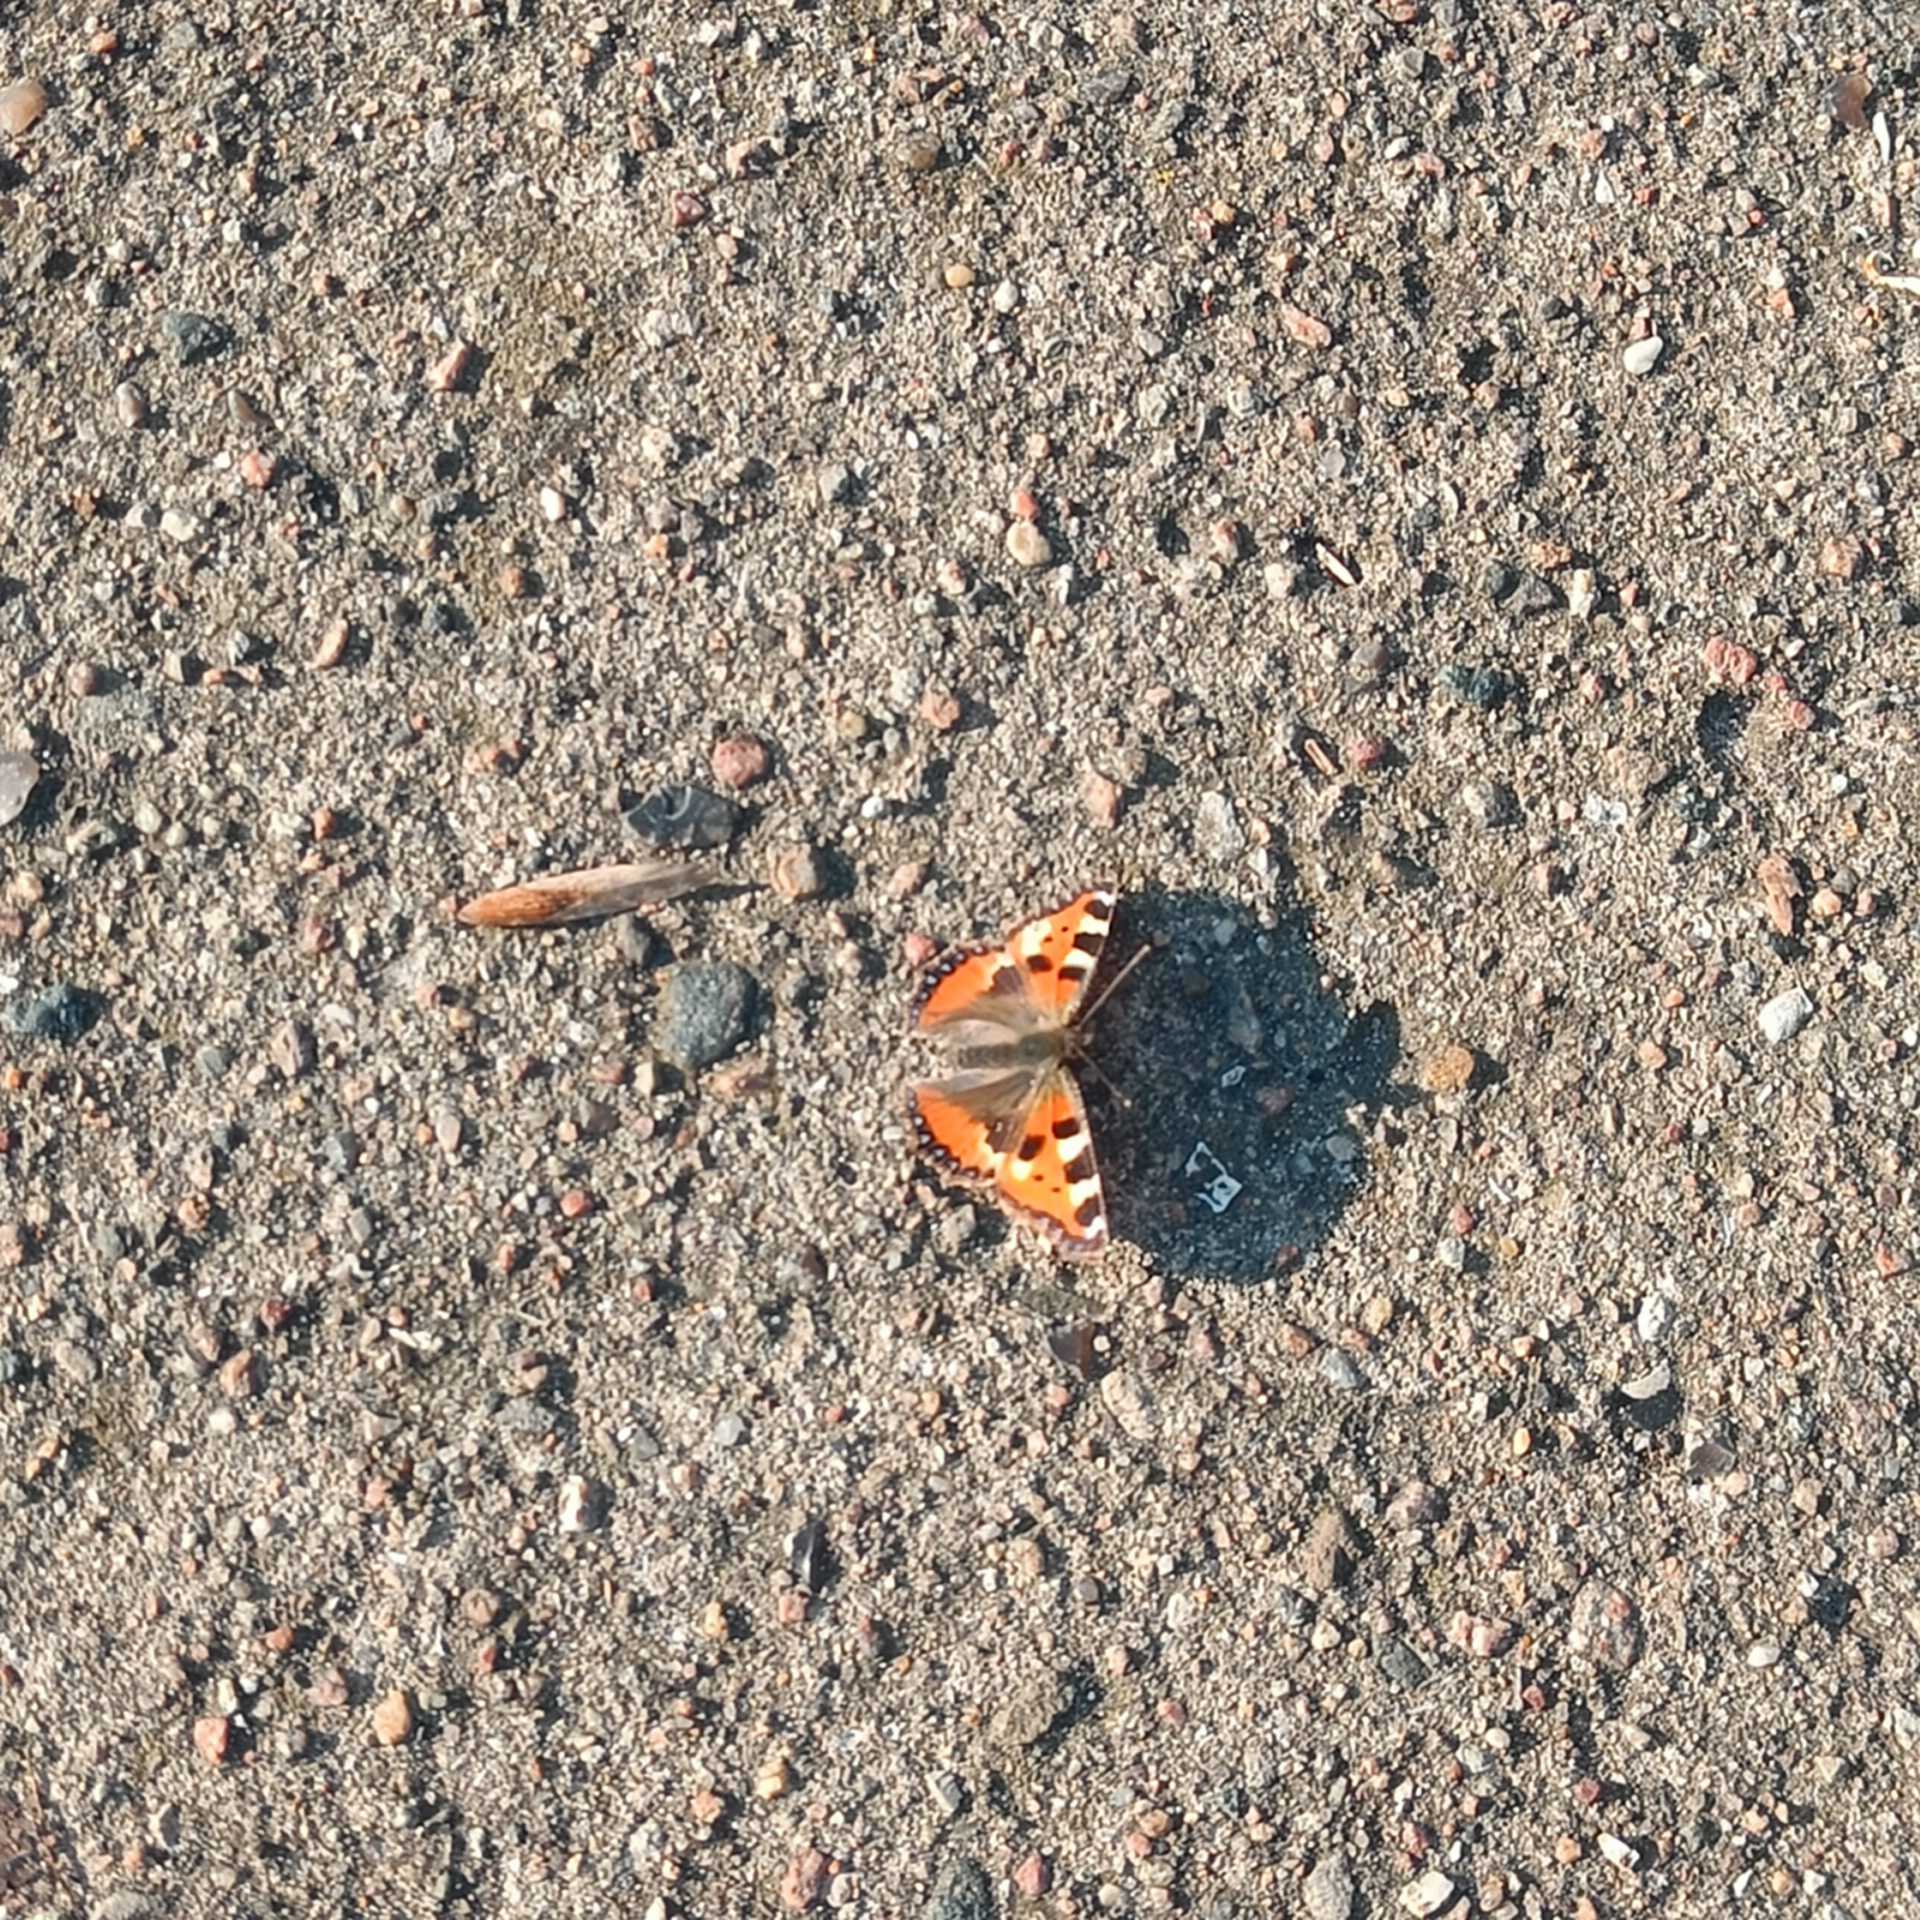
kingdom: Animalia
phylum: Arthropoda
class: Insecta
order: Lepidoptera
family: Nymphalidae
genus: Aglais
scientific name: Aglais urticae
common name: Nældens takvinge
